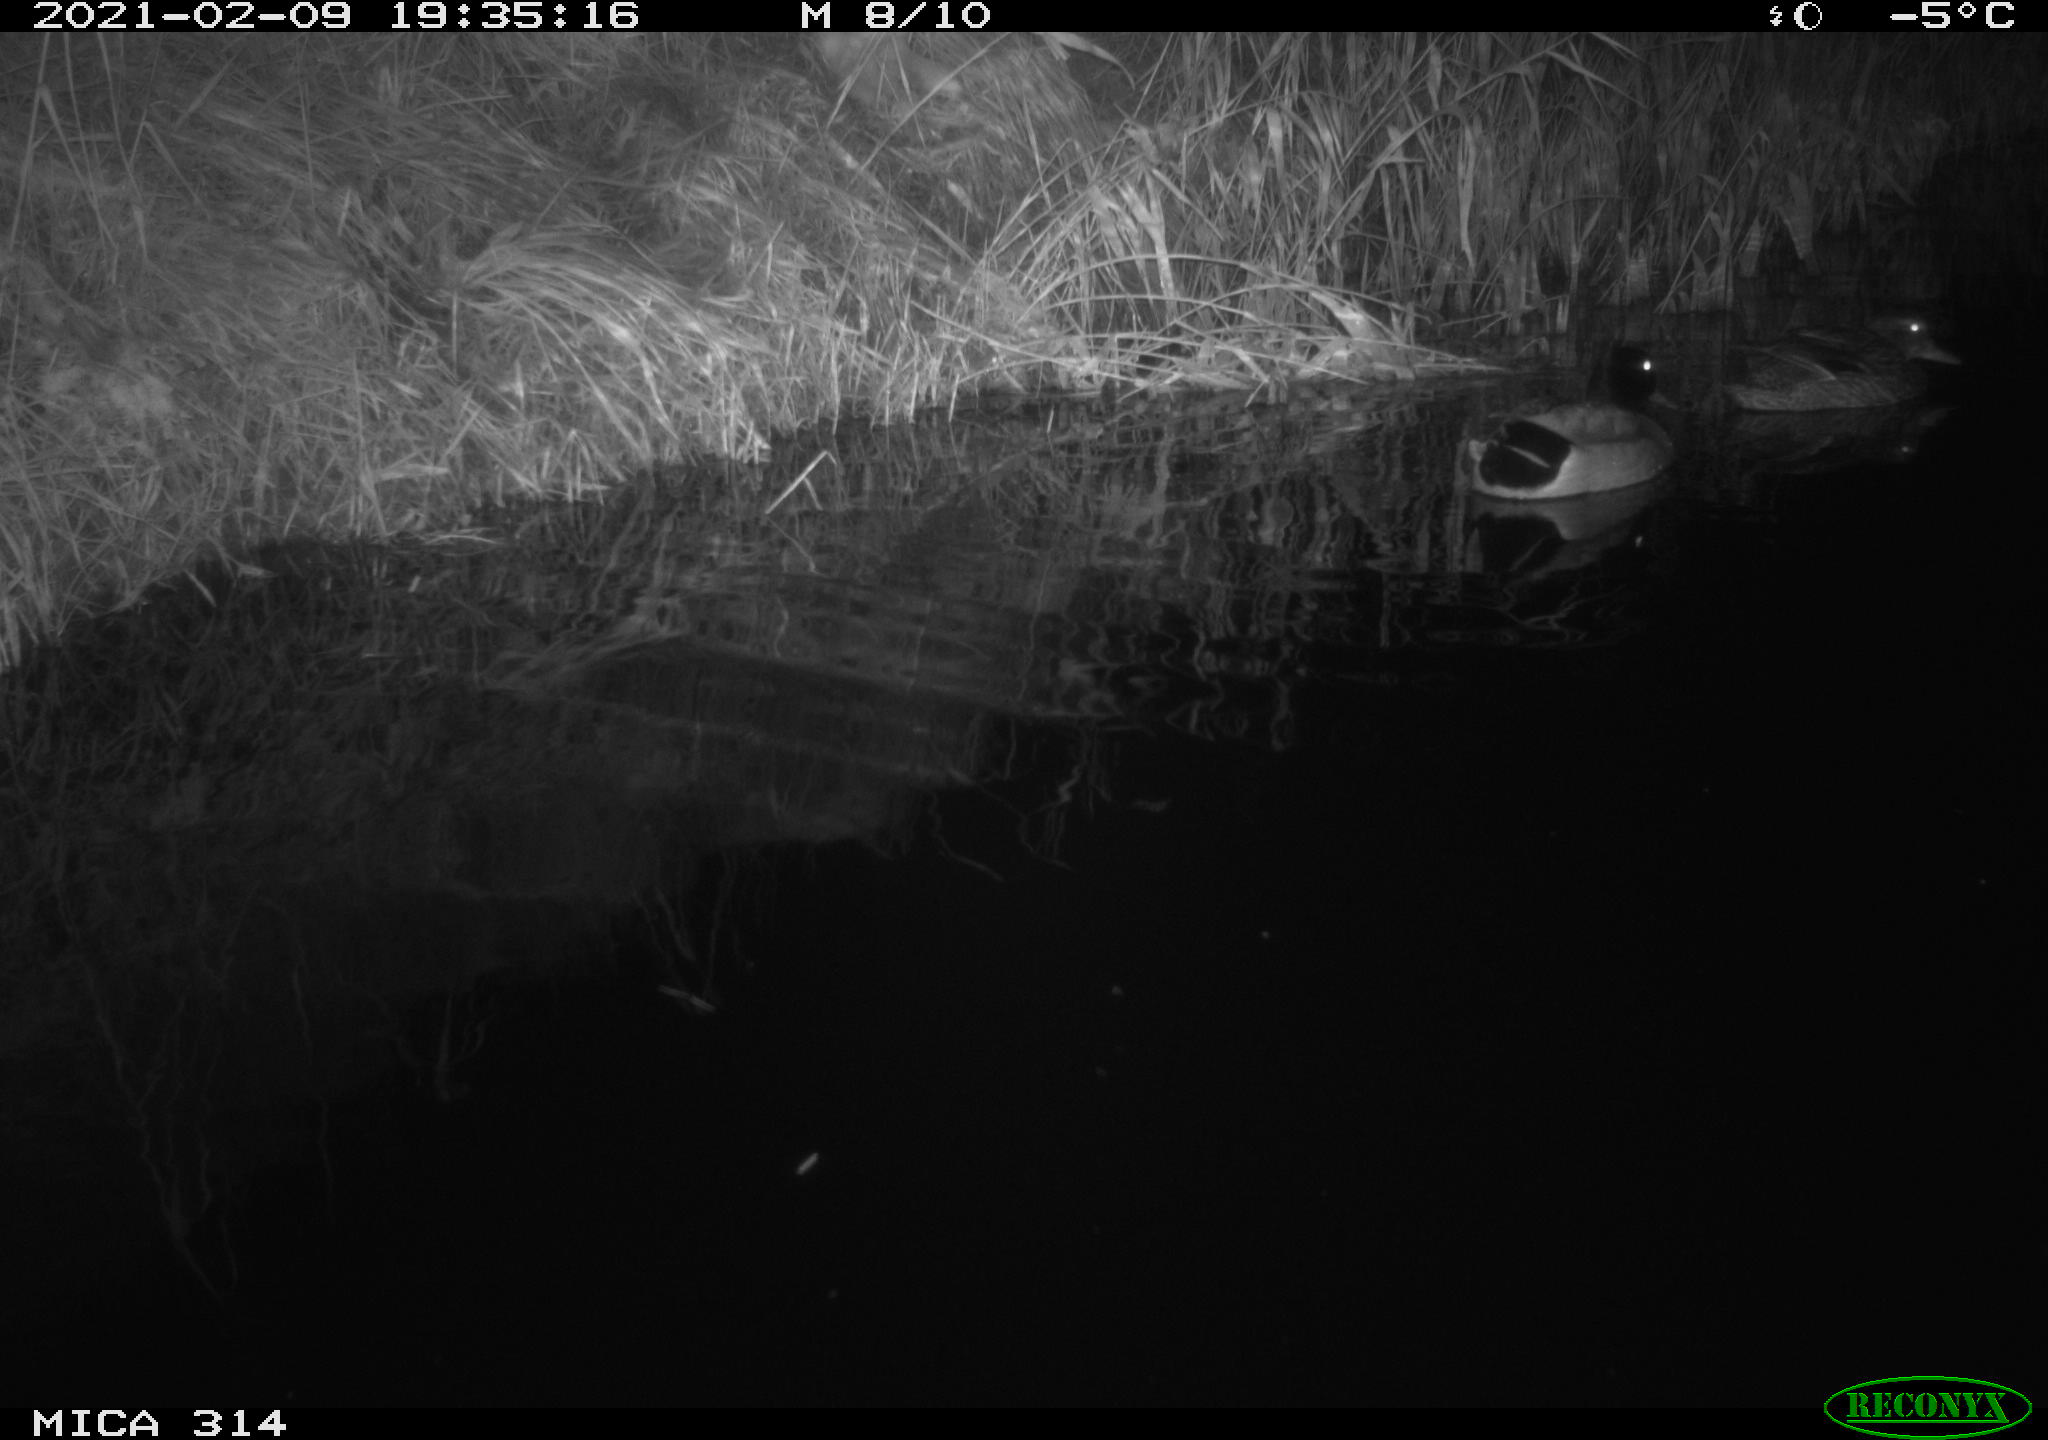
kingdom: Animalia
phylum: Chordata
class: Aves
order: Anseriformes
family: Anatidae
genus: Anas
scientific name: Anas platyrhynchos
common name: Mallard
